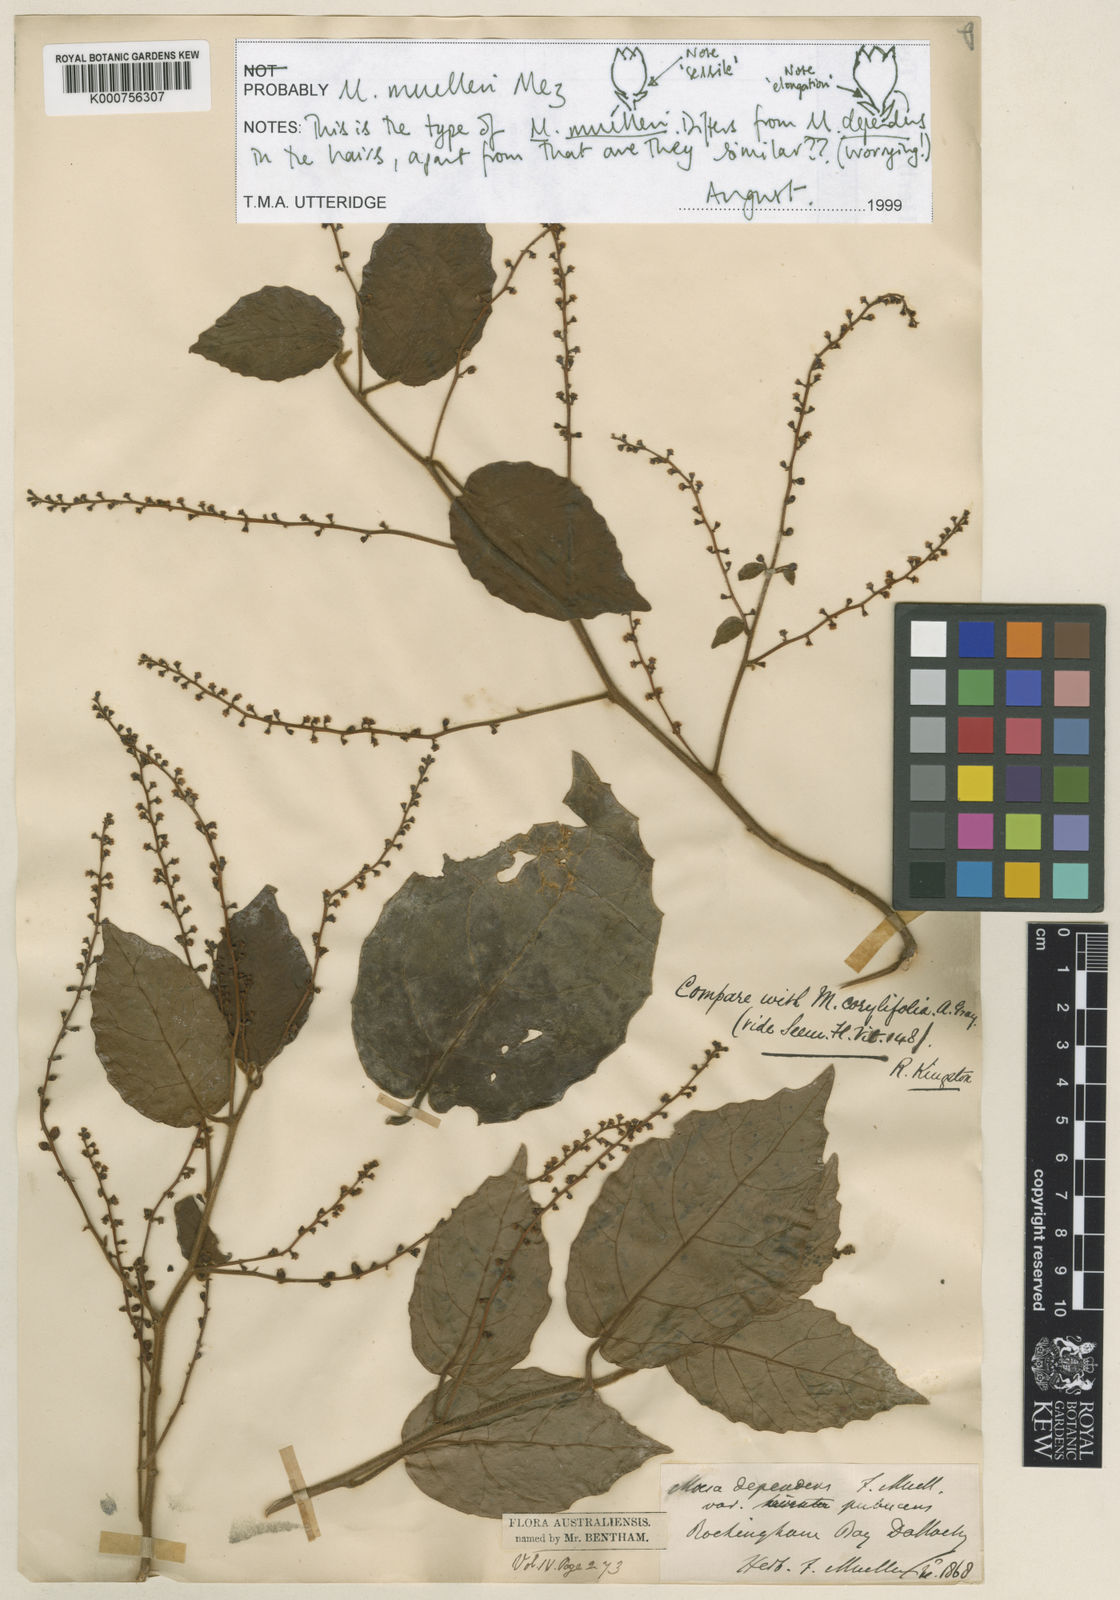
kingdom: Plantae
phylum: Tracheophyta
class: Magnoliopsida
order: Ericales
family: Primulaceae
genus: Maesa
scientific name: Maesa dependens
